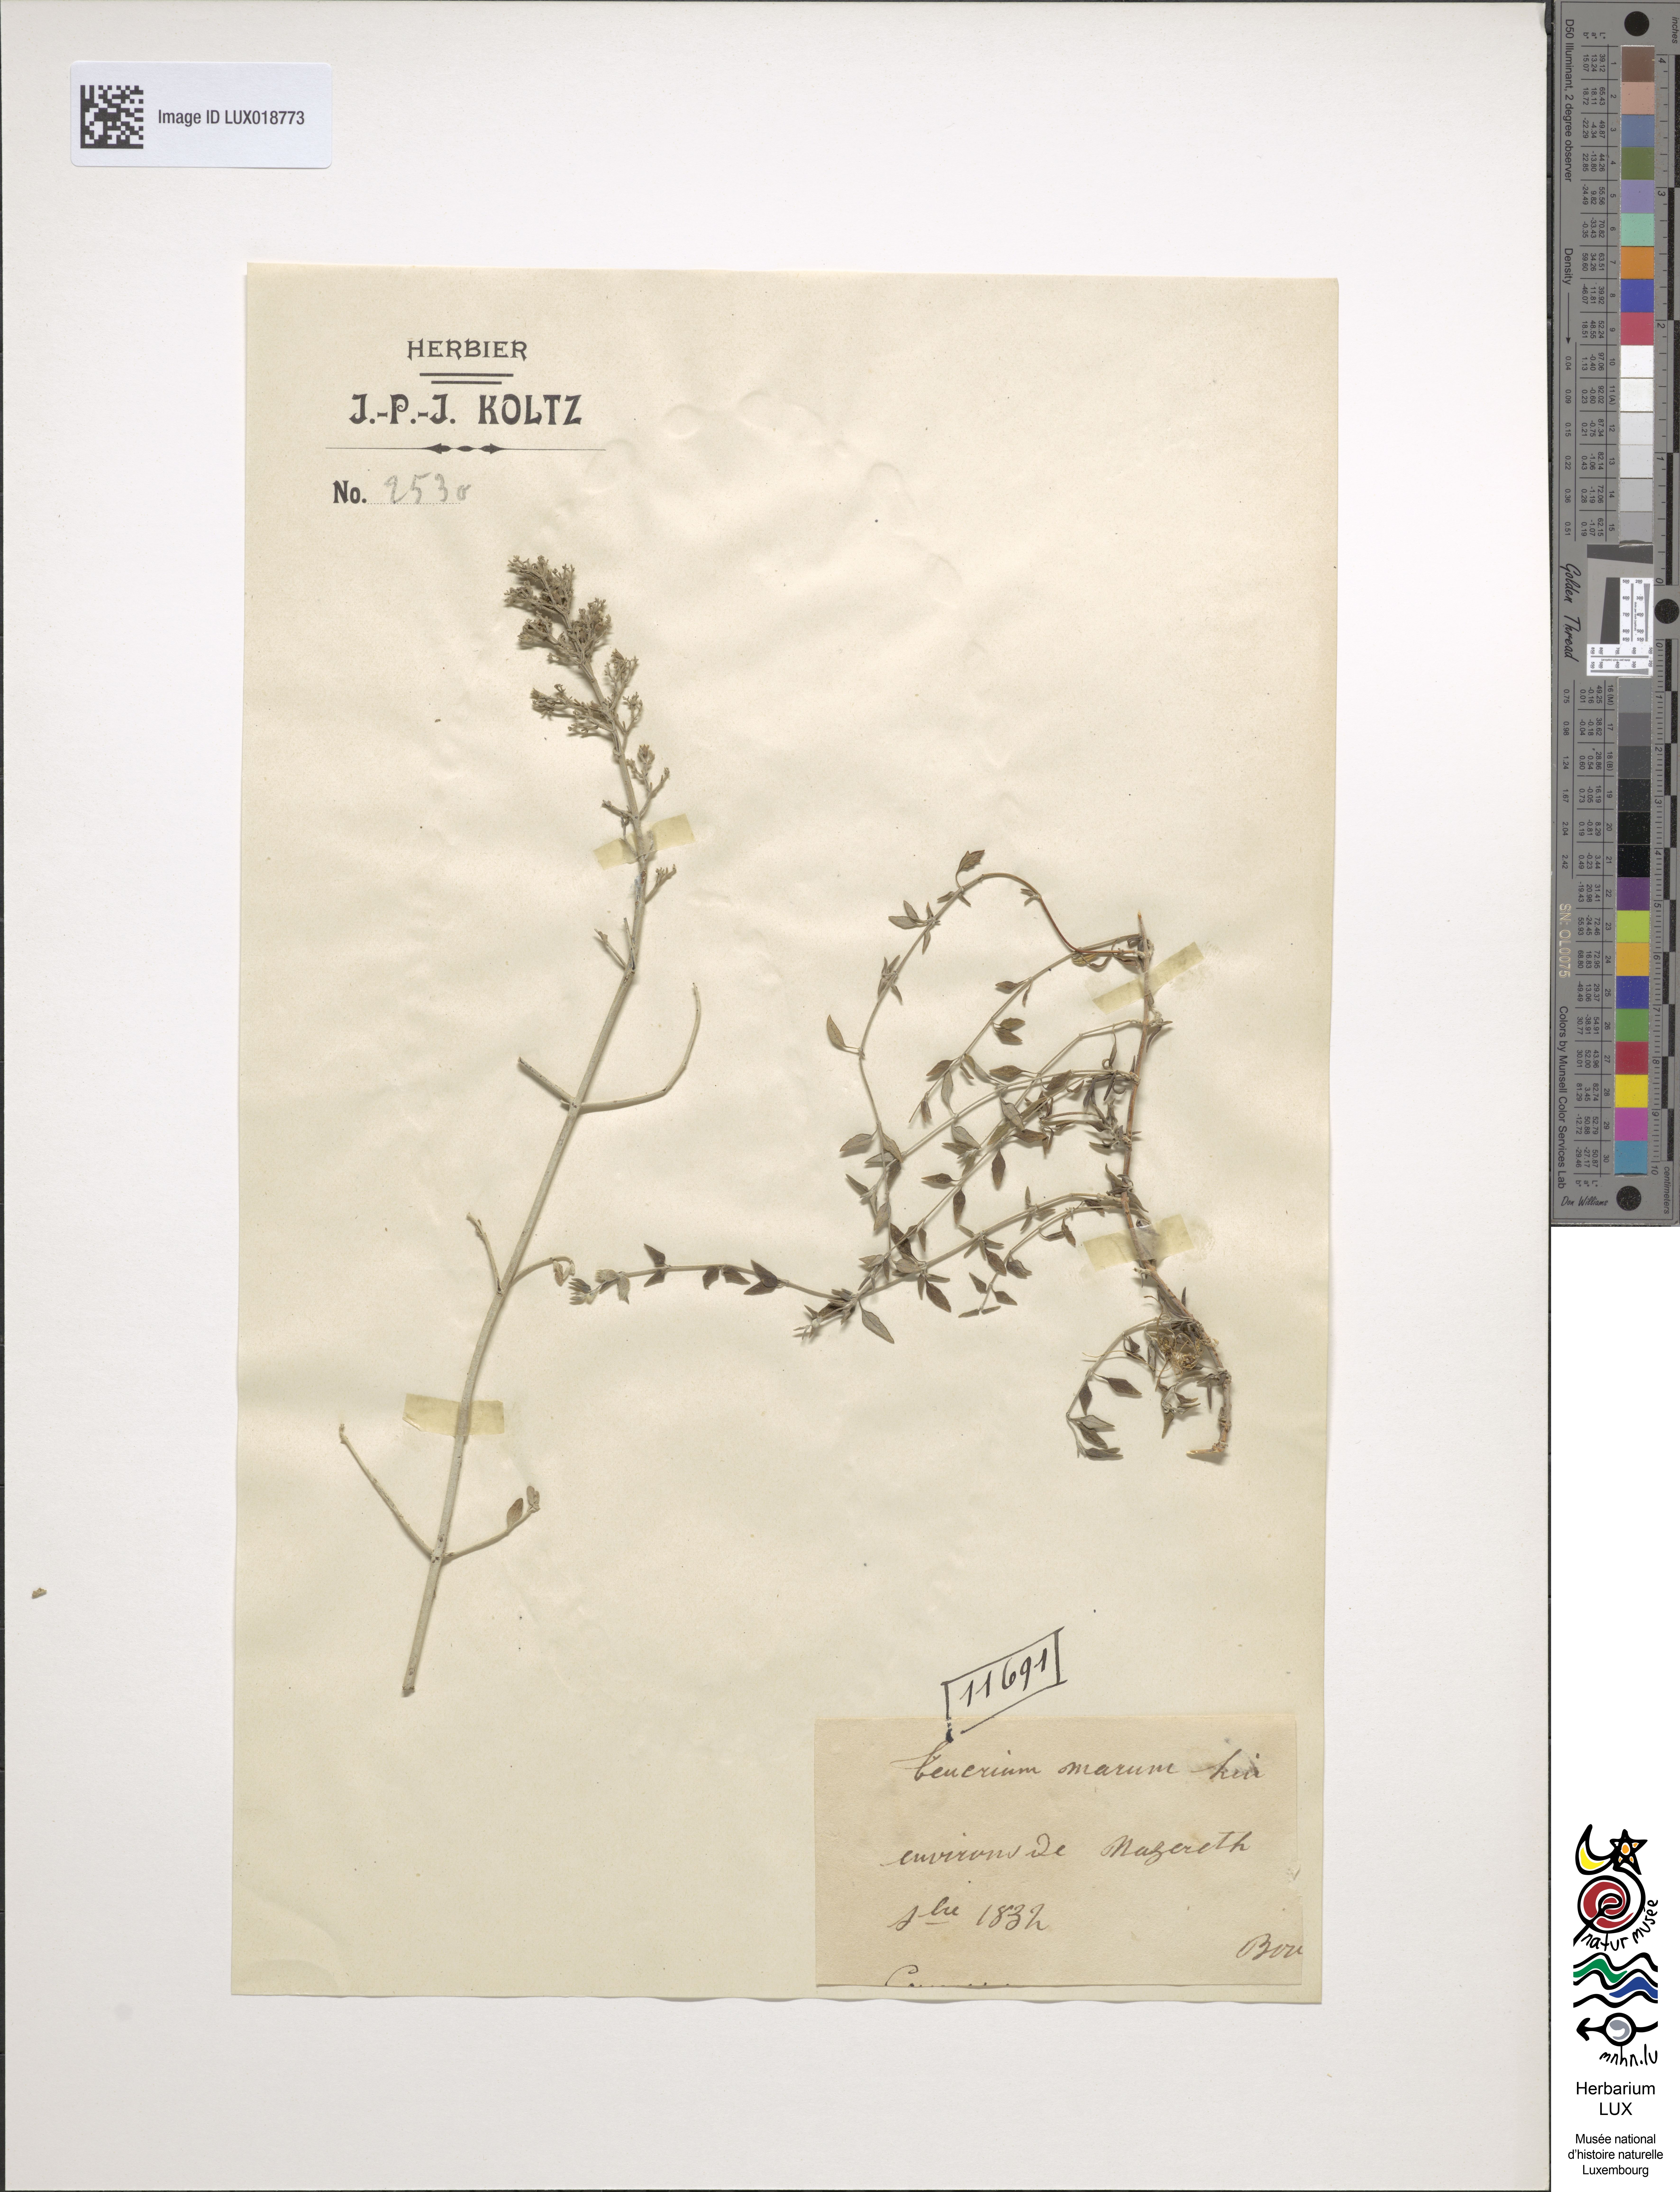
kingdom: Plantae
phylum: Tracheophyta
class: Magnoliopsida
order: Lamiales
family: Lamiaceae
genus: Teucrium
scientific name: Teucrium marum
